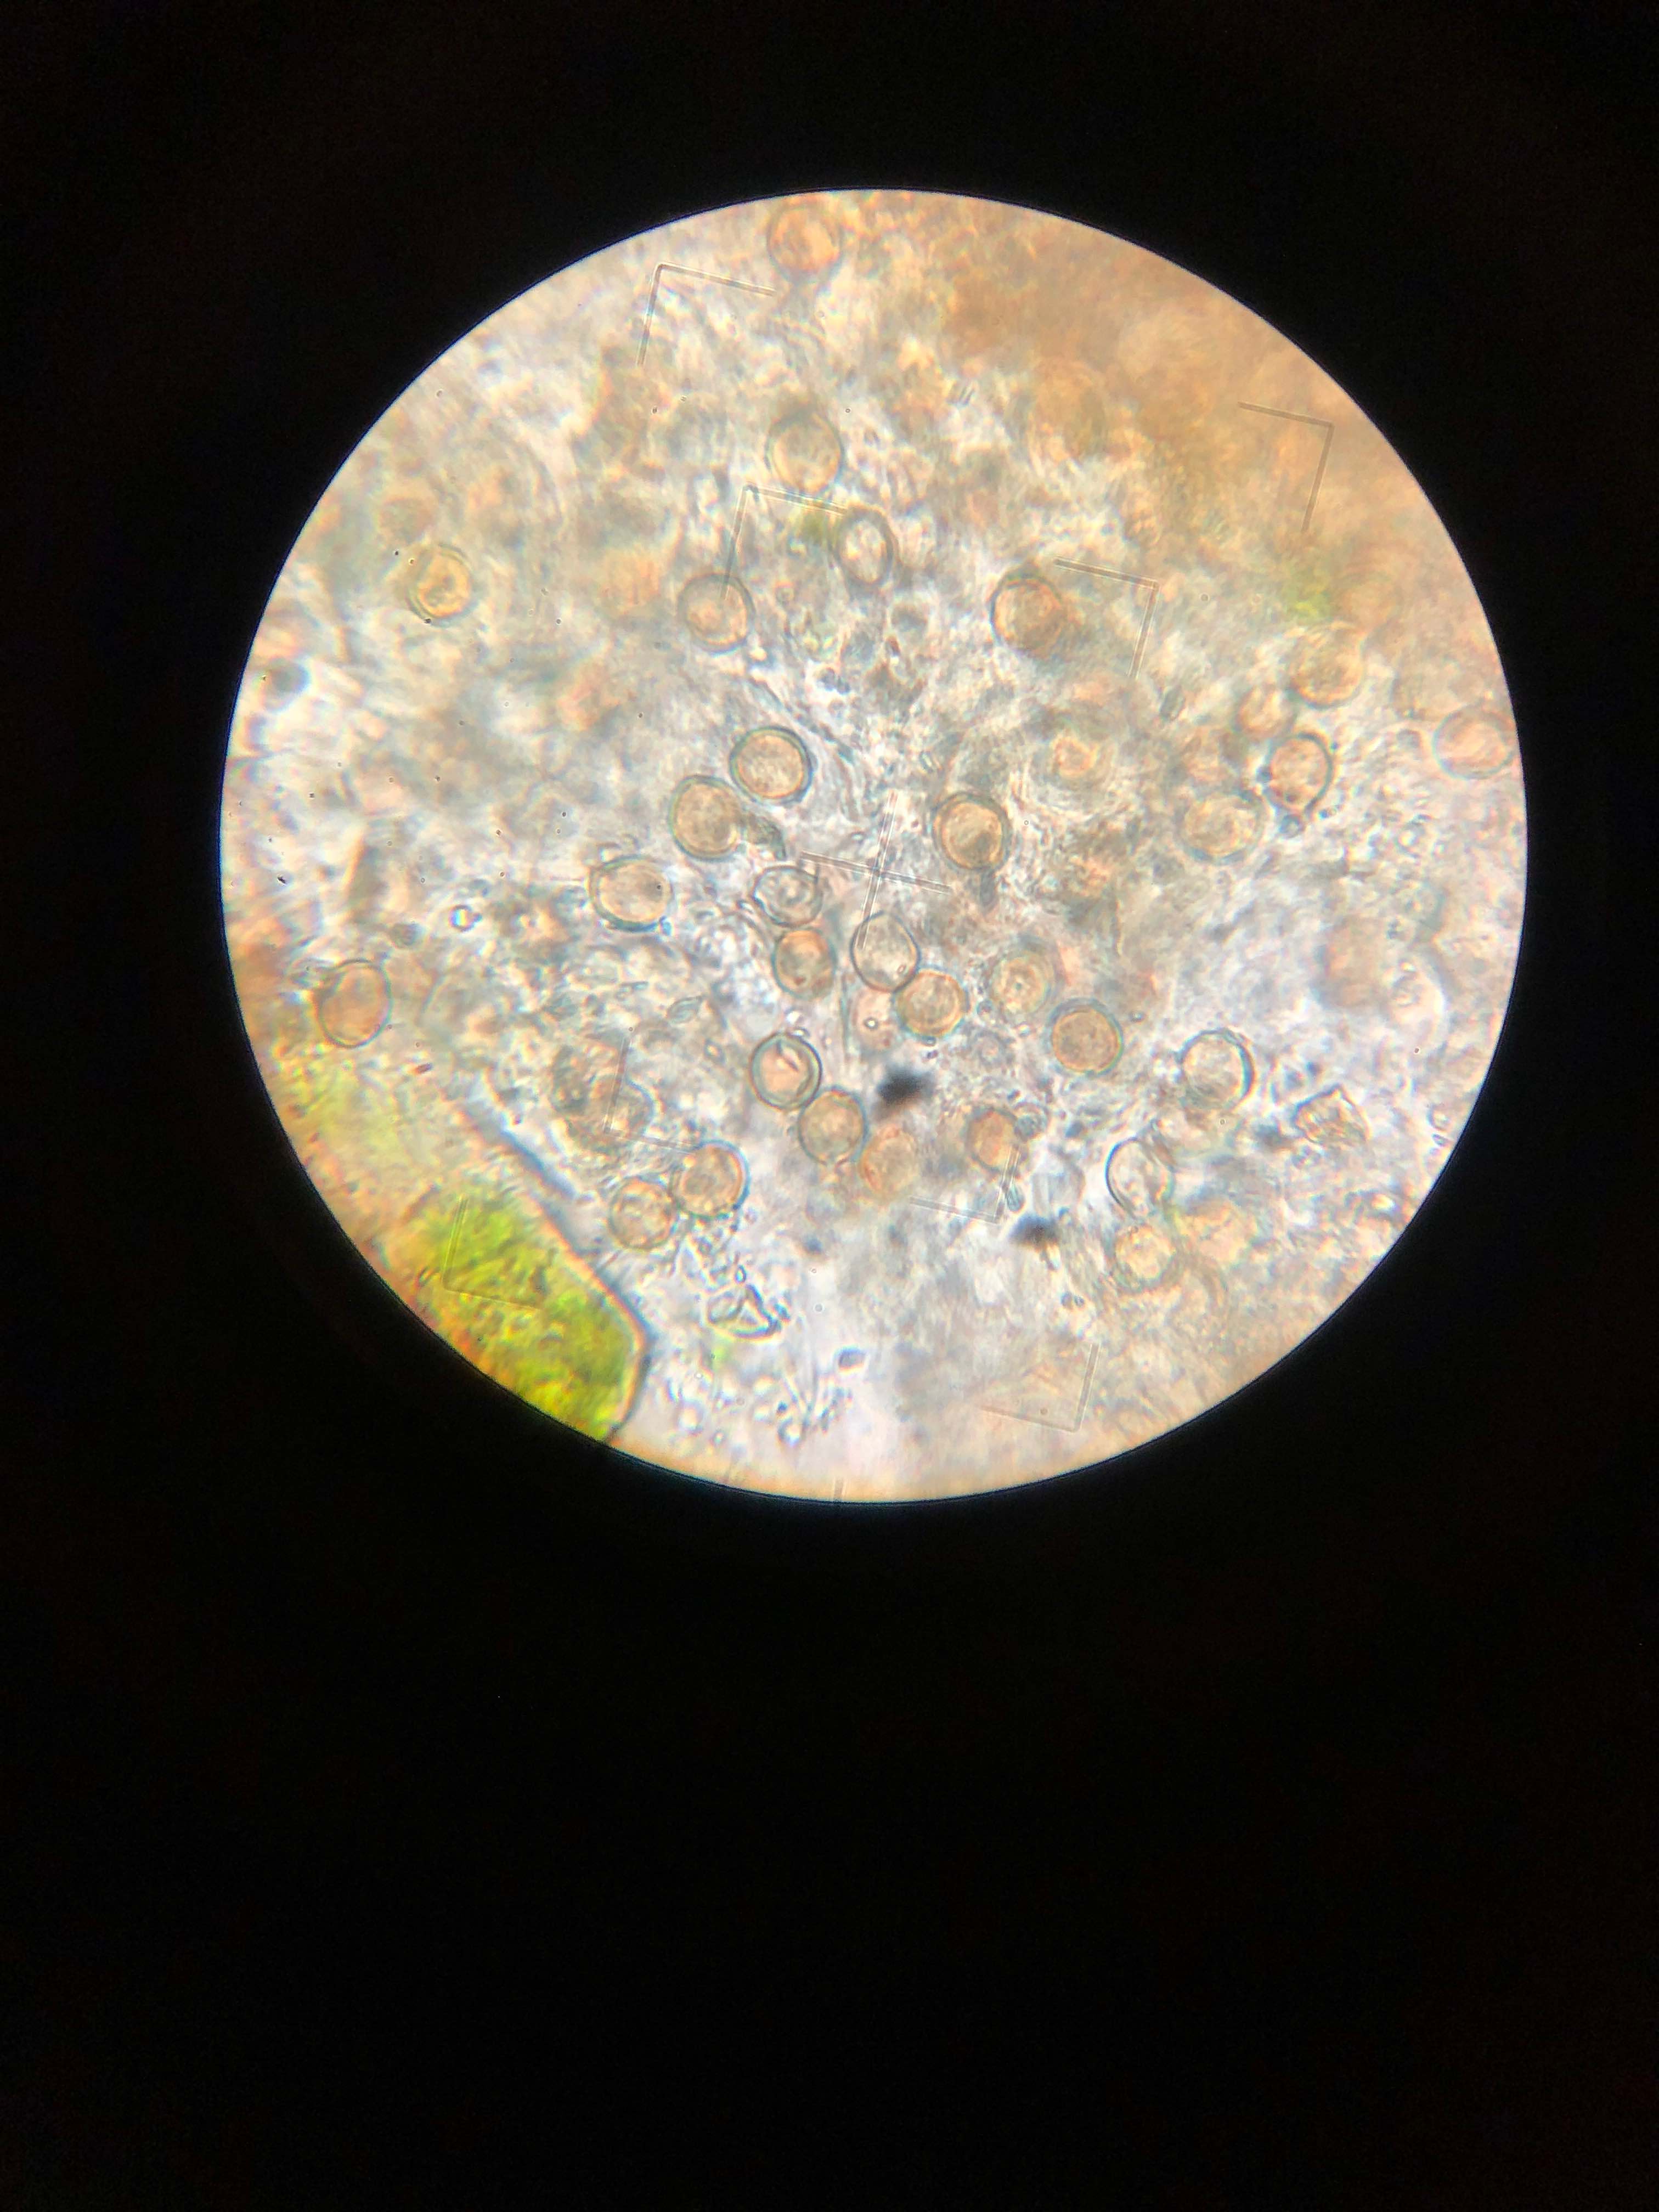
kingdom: Fungi
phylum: Basidiomycota
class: Agaricomycetes
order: Agaricales
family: Chromocyphellaceae
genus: Chromocyphella
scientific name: Chromocyphella muscicola
